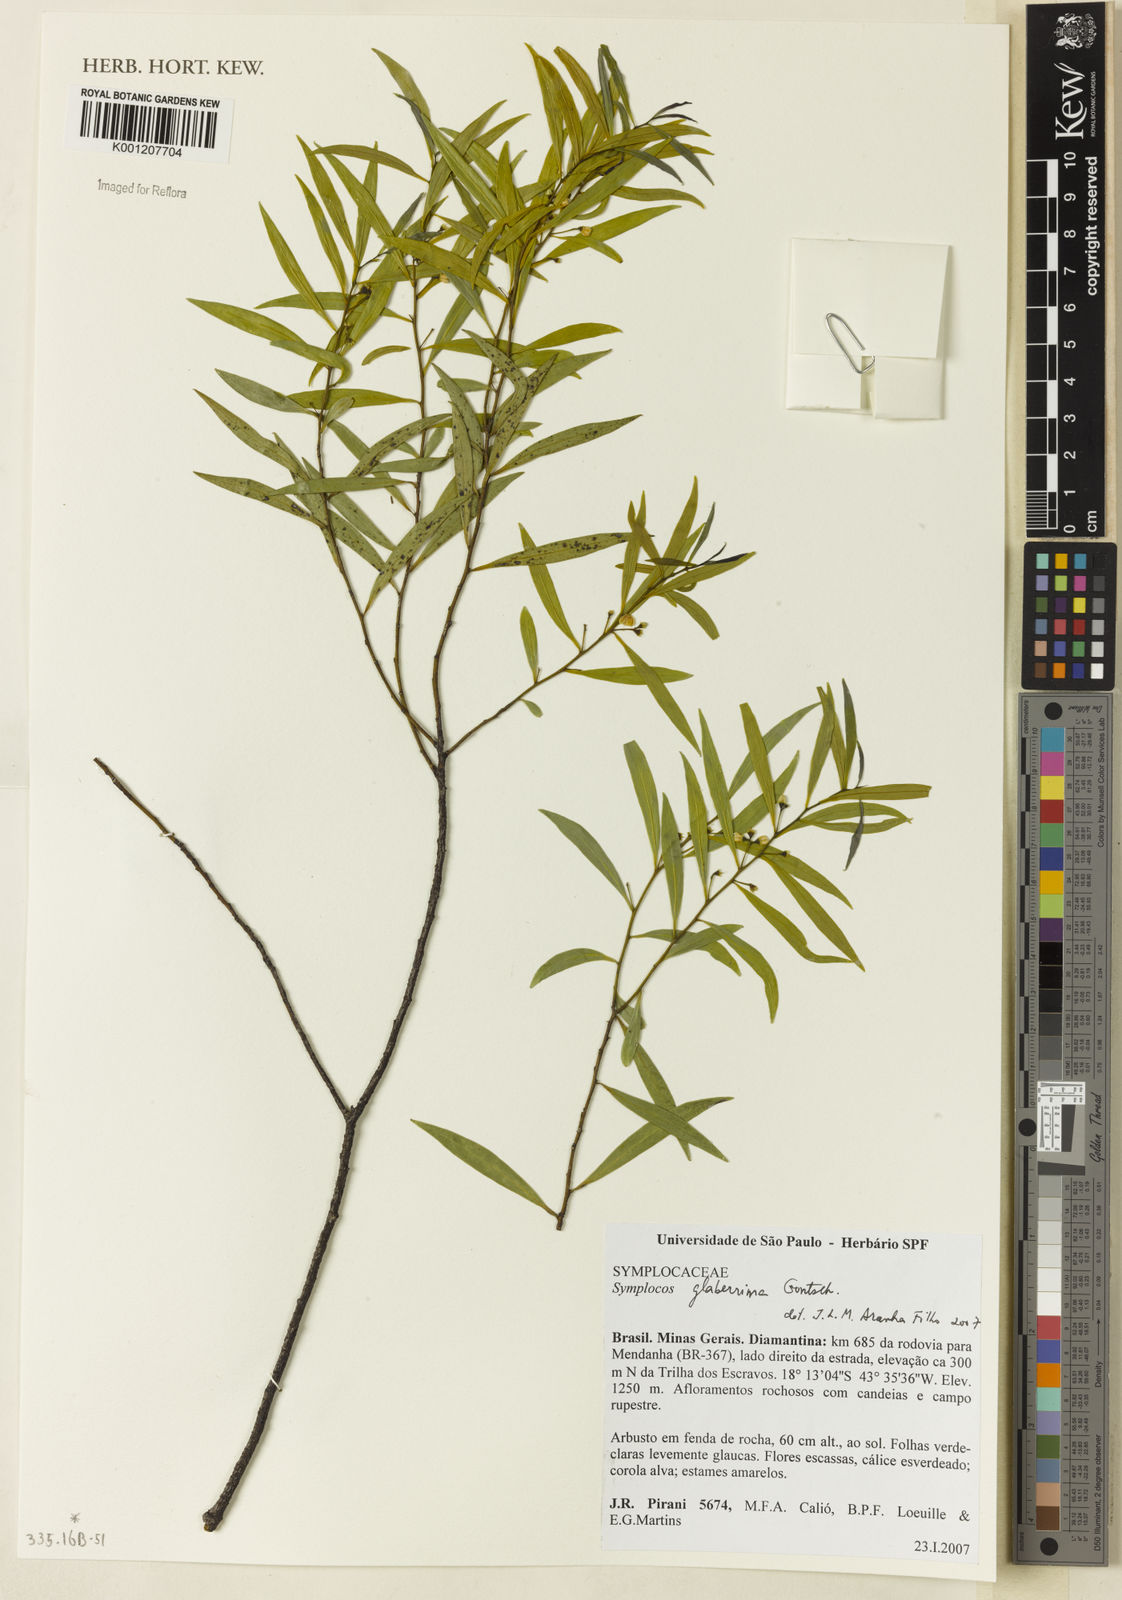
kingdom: Plantae
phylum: Tracheophyta
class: Magnoliopsida
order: Ericales
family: Symplocaceae
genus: Symplocos
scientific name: Symplocos
